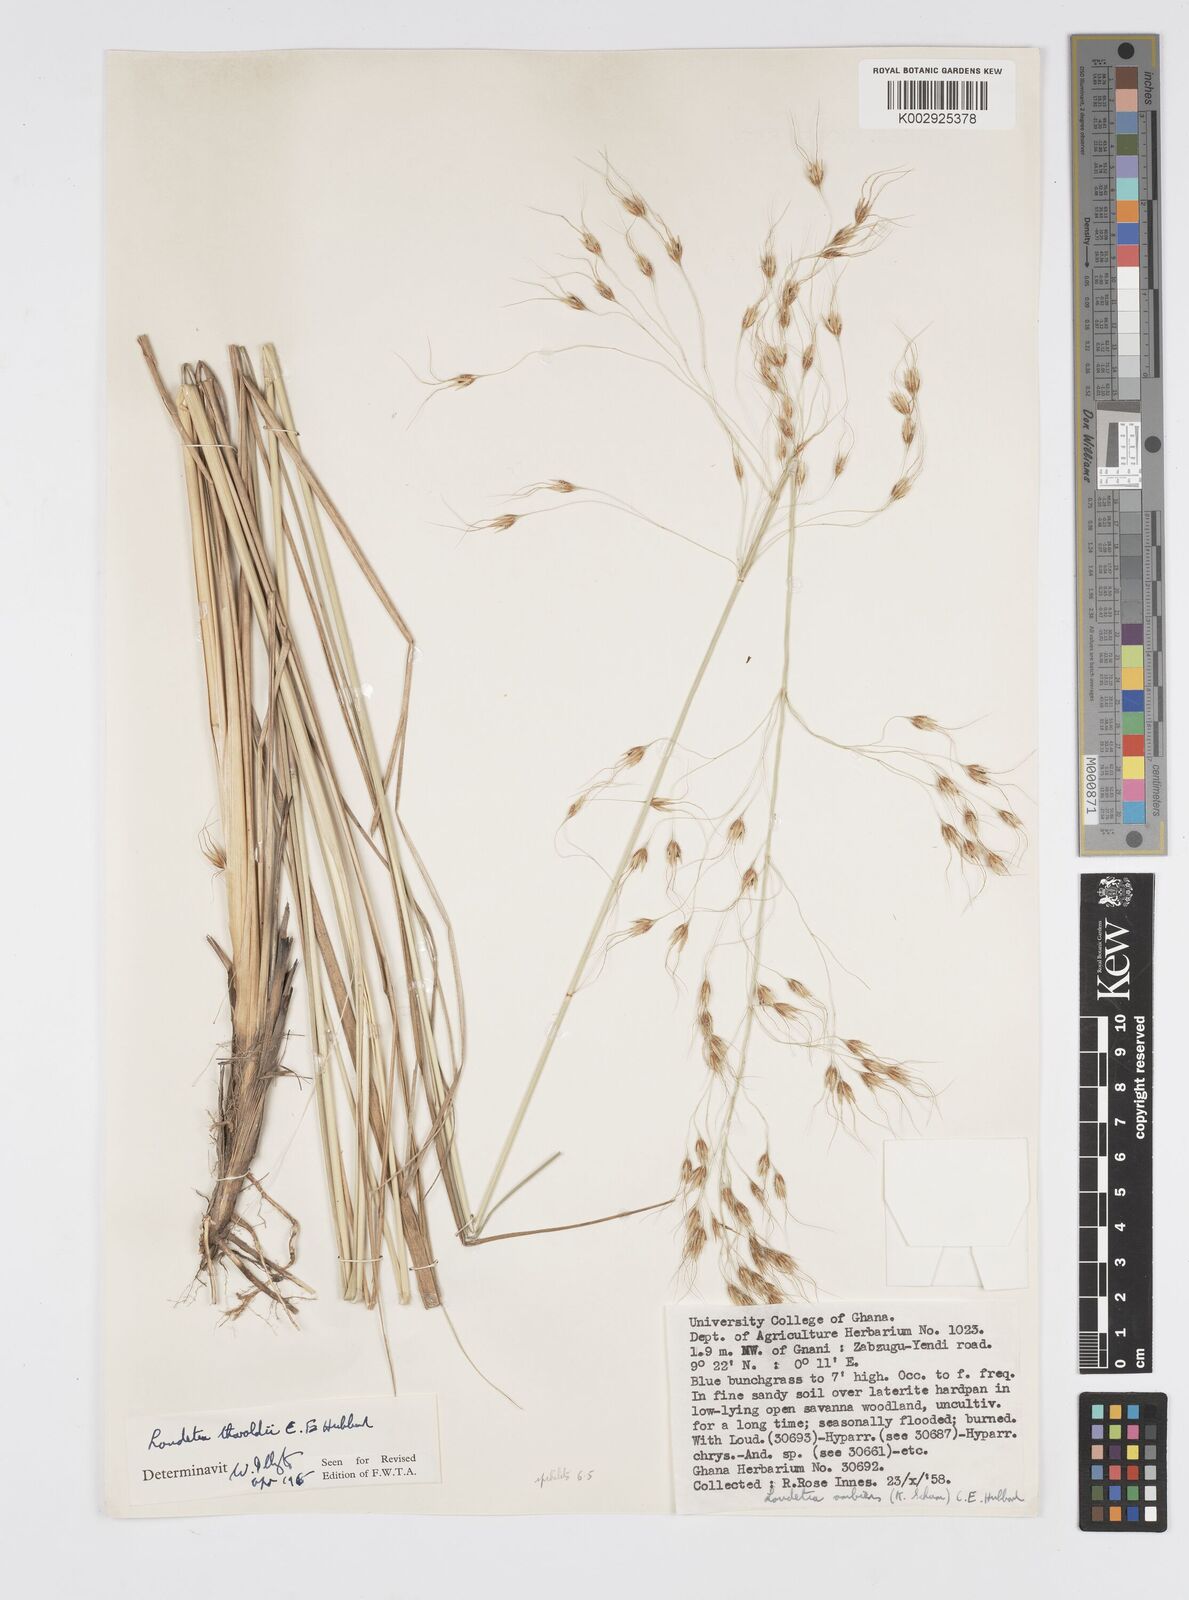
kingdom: Plantae
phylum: Tracheophyta
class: Liliopsida
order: Poales
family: Poaceae
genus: Loudetiopsis
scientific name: Loudetiopsis thoroldii
